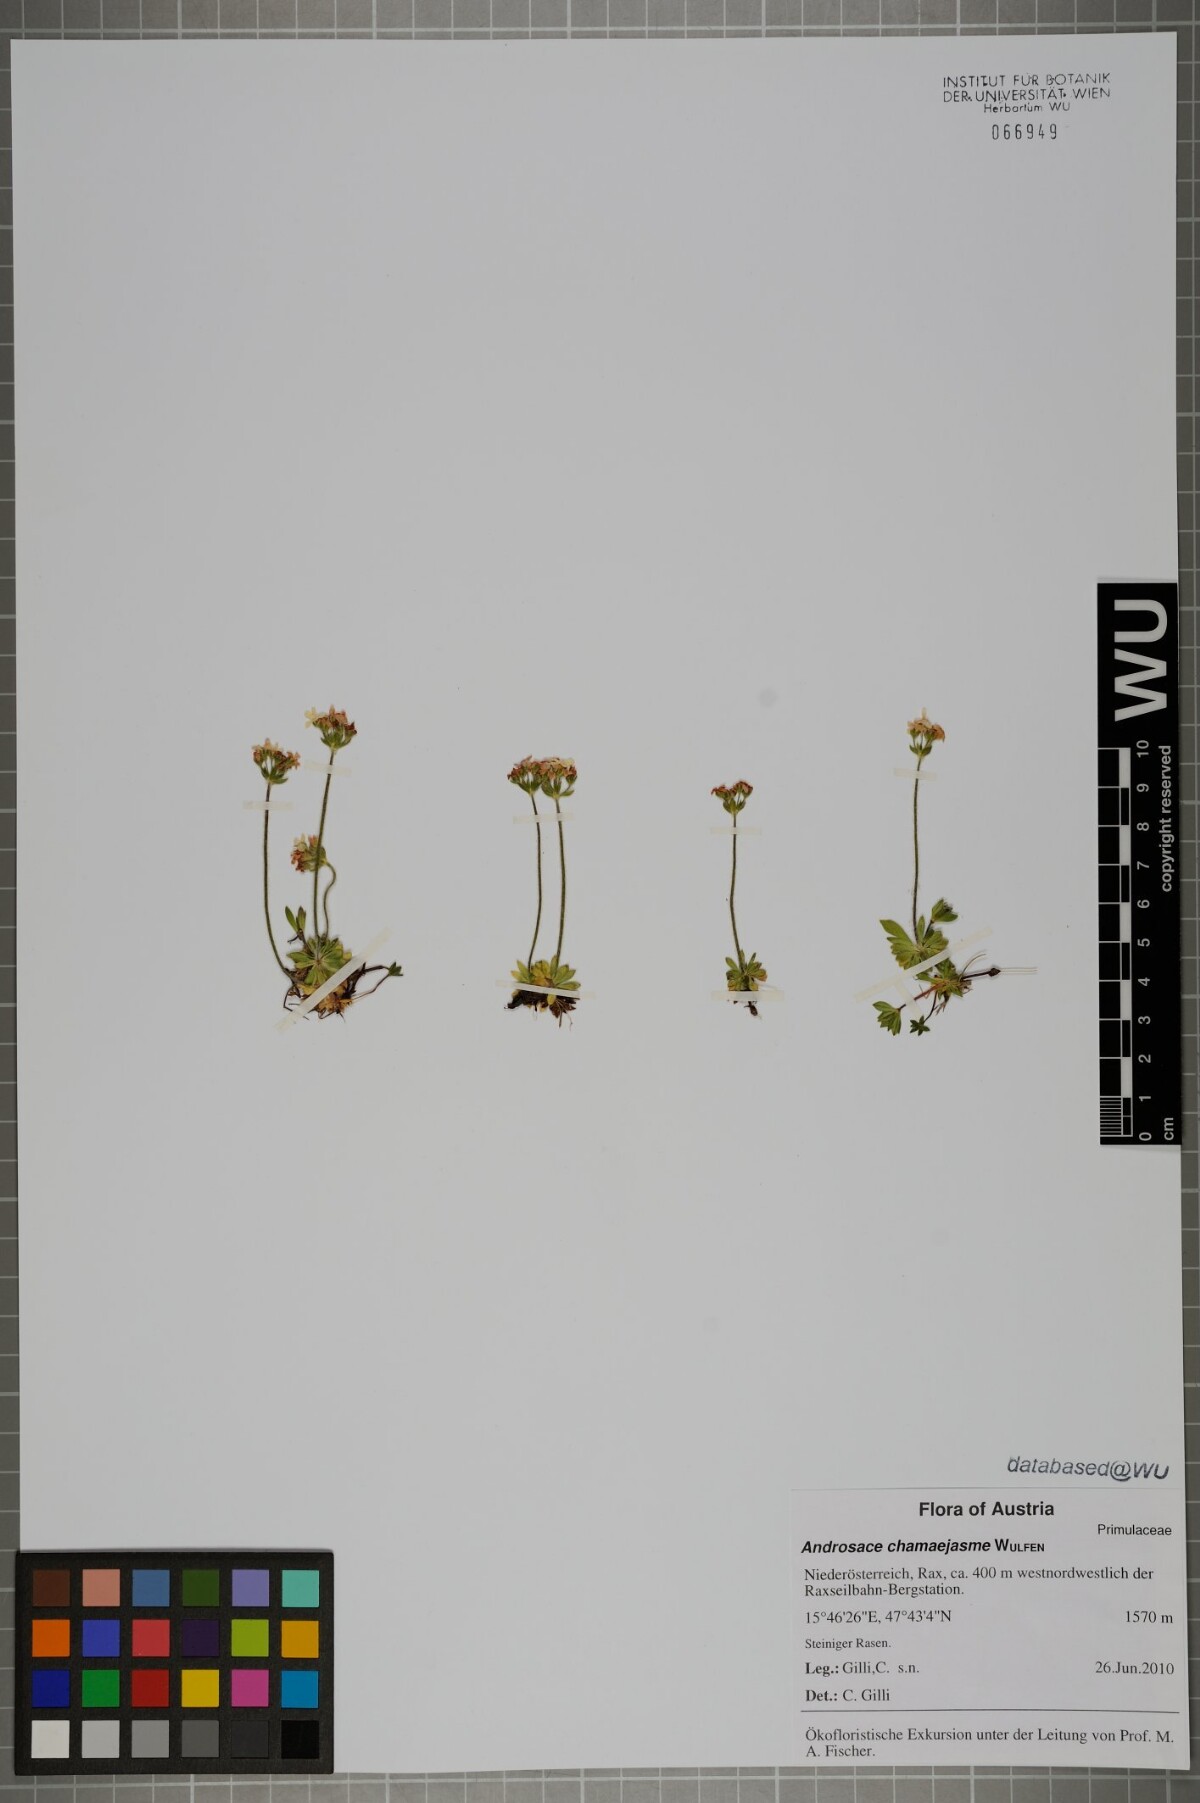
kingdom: Plantae
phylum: Tracheophyta
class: Magnoliopsida
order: Ericales
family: Primulaceae
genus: Androsace
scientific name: Androsace chamaejasme
